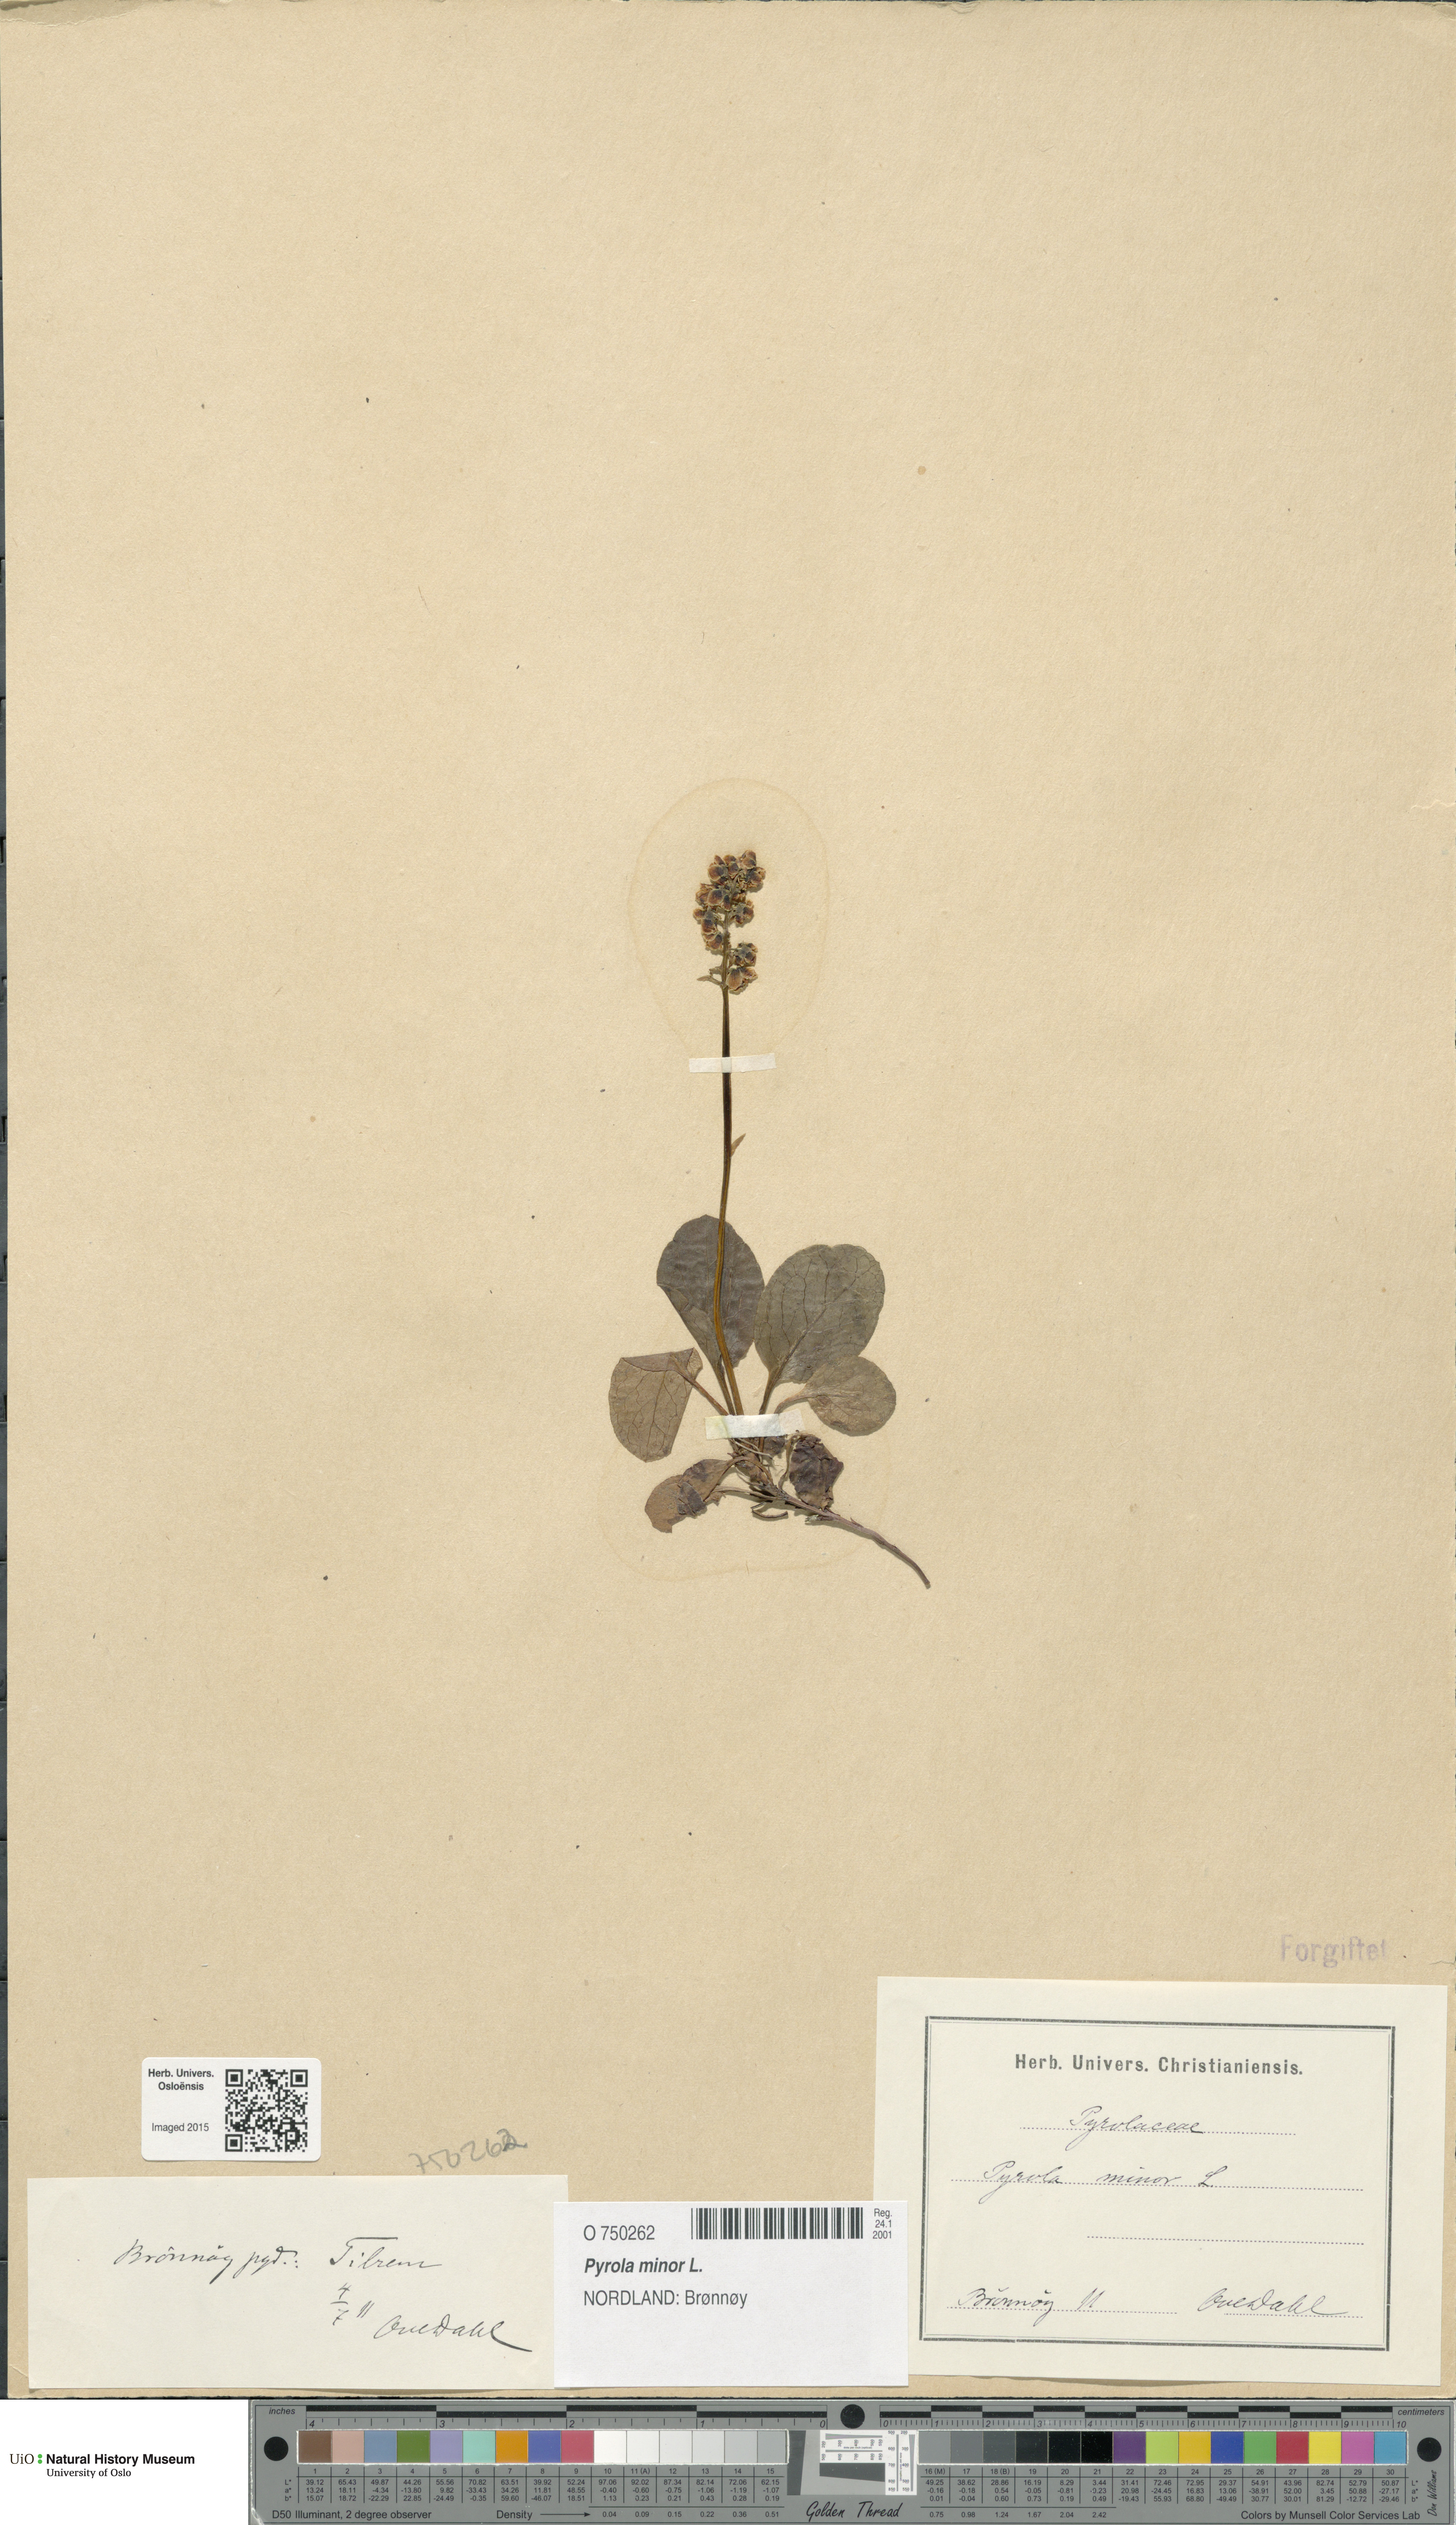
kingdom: Plantae
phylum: Tracheophyta
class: Magnoliopsida
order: Ericales
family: Ericaceae
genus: Pyrola
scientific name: Pyrola minor
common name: Common wintergreen
